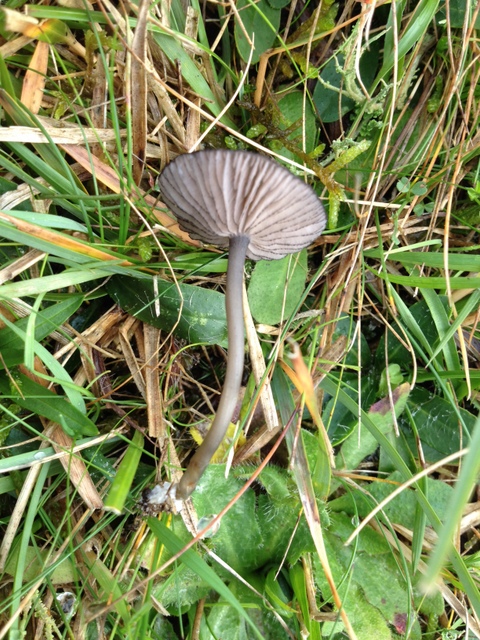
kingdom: Fungi
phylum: Basidiomycota
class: Agaricomycetes
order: Agaricales
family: Entolomataceae
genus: Entoloma
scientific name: Entoloma
